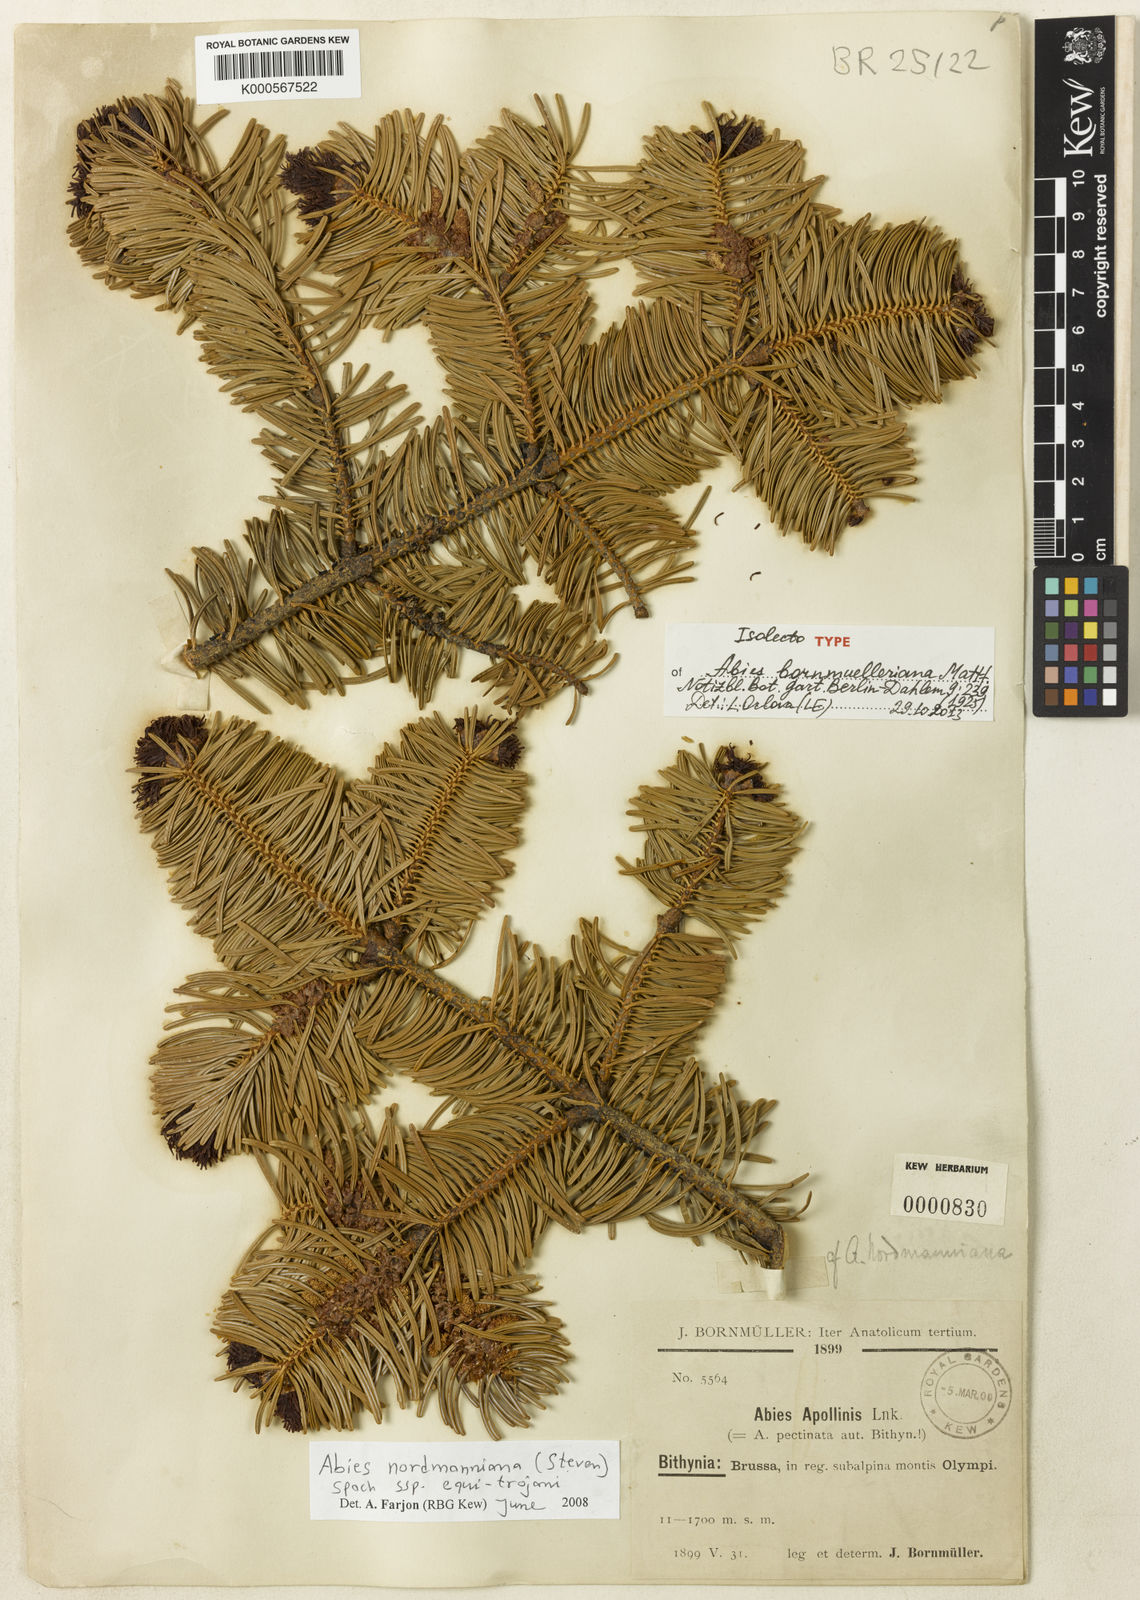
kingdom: Plantae
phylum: Tracheophyta
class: Pinopsida
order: Pinales
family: Pinaceae
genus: Abies
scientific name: Abies nordmanniana
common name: Caucasian fir
